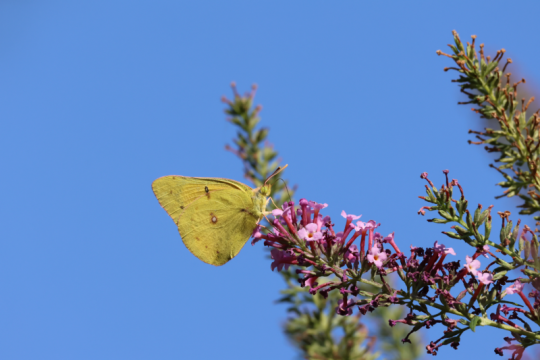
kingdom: Animalia
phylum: Arthropoda
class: Insecta
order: Lepidoptera
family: Pieridae
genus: Colias
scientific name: Colias eurytheme
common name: Orange Sulphur
